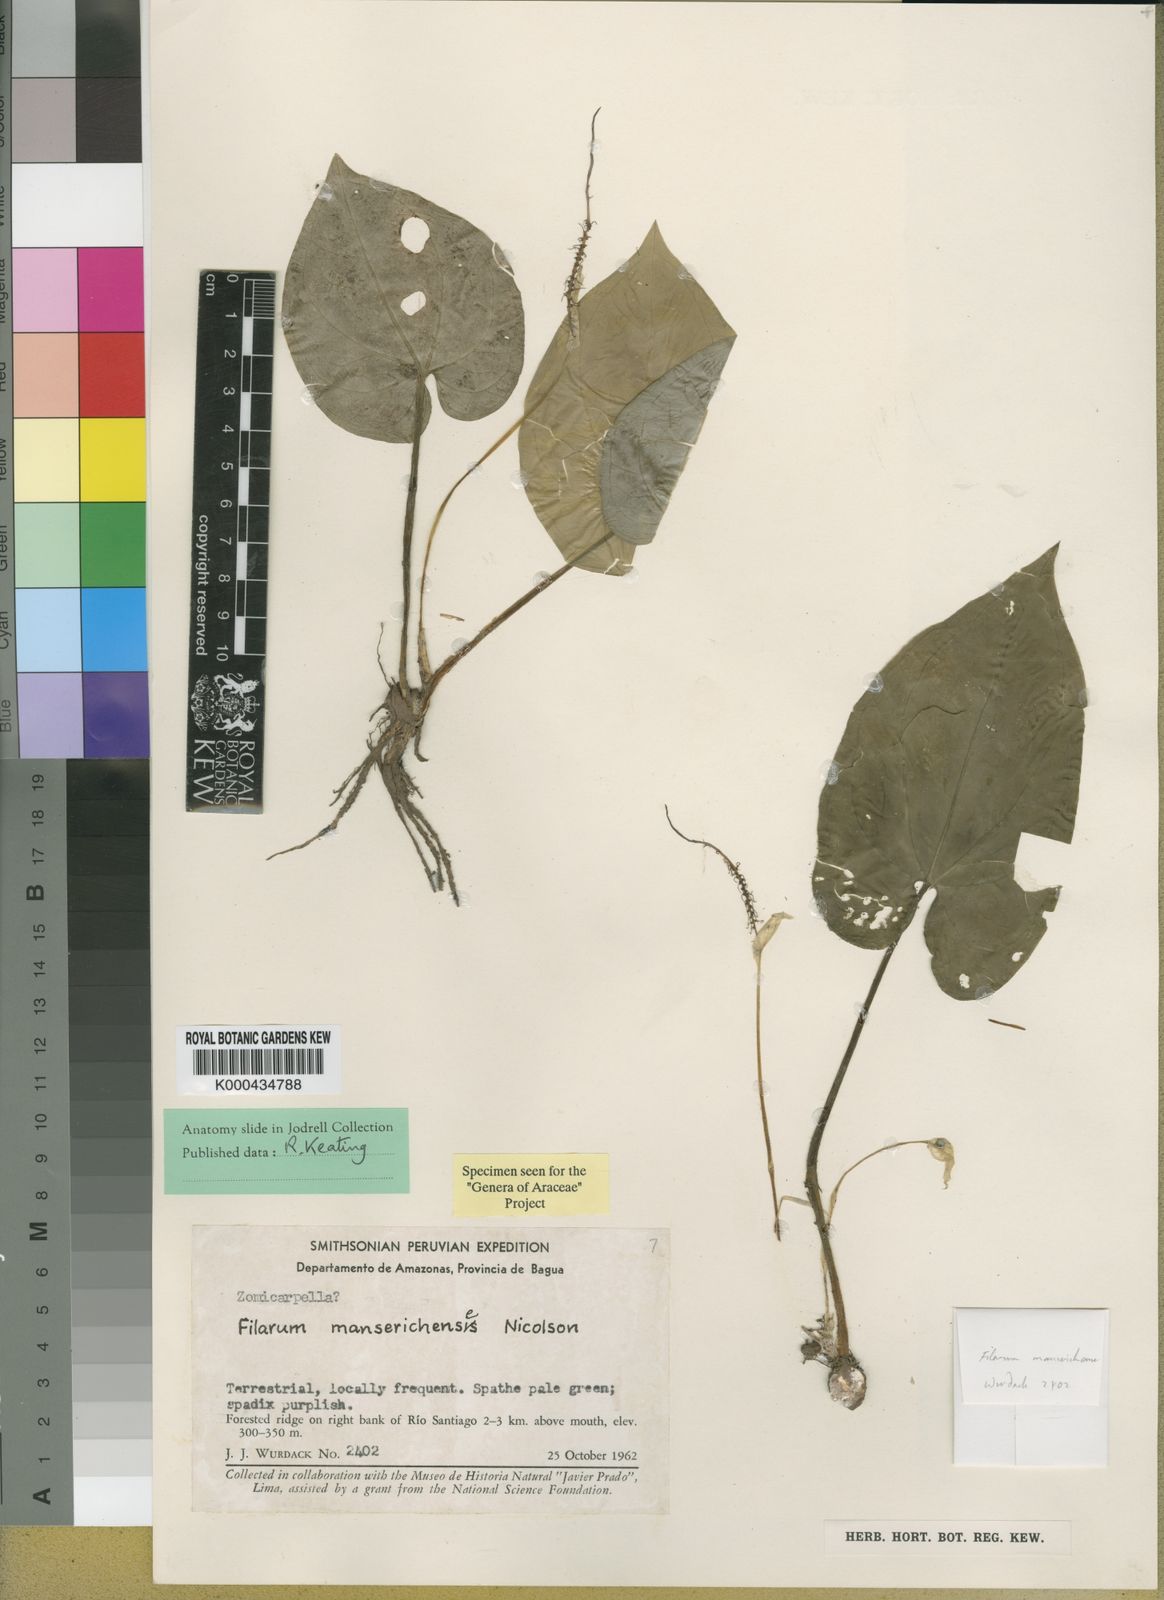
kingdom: Plantae
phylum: Tracheophyta
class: Liliopsida
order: Alismatales
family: Araceae
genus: Filarum
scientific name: Filarum manserichense
